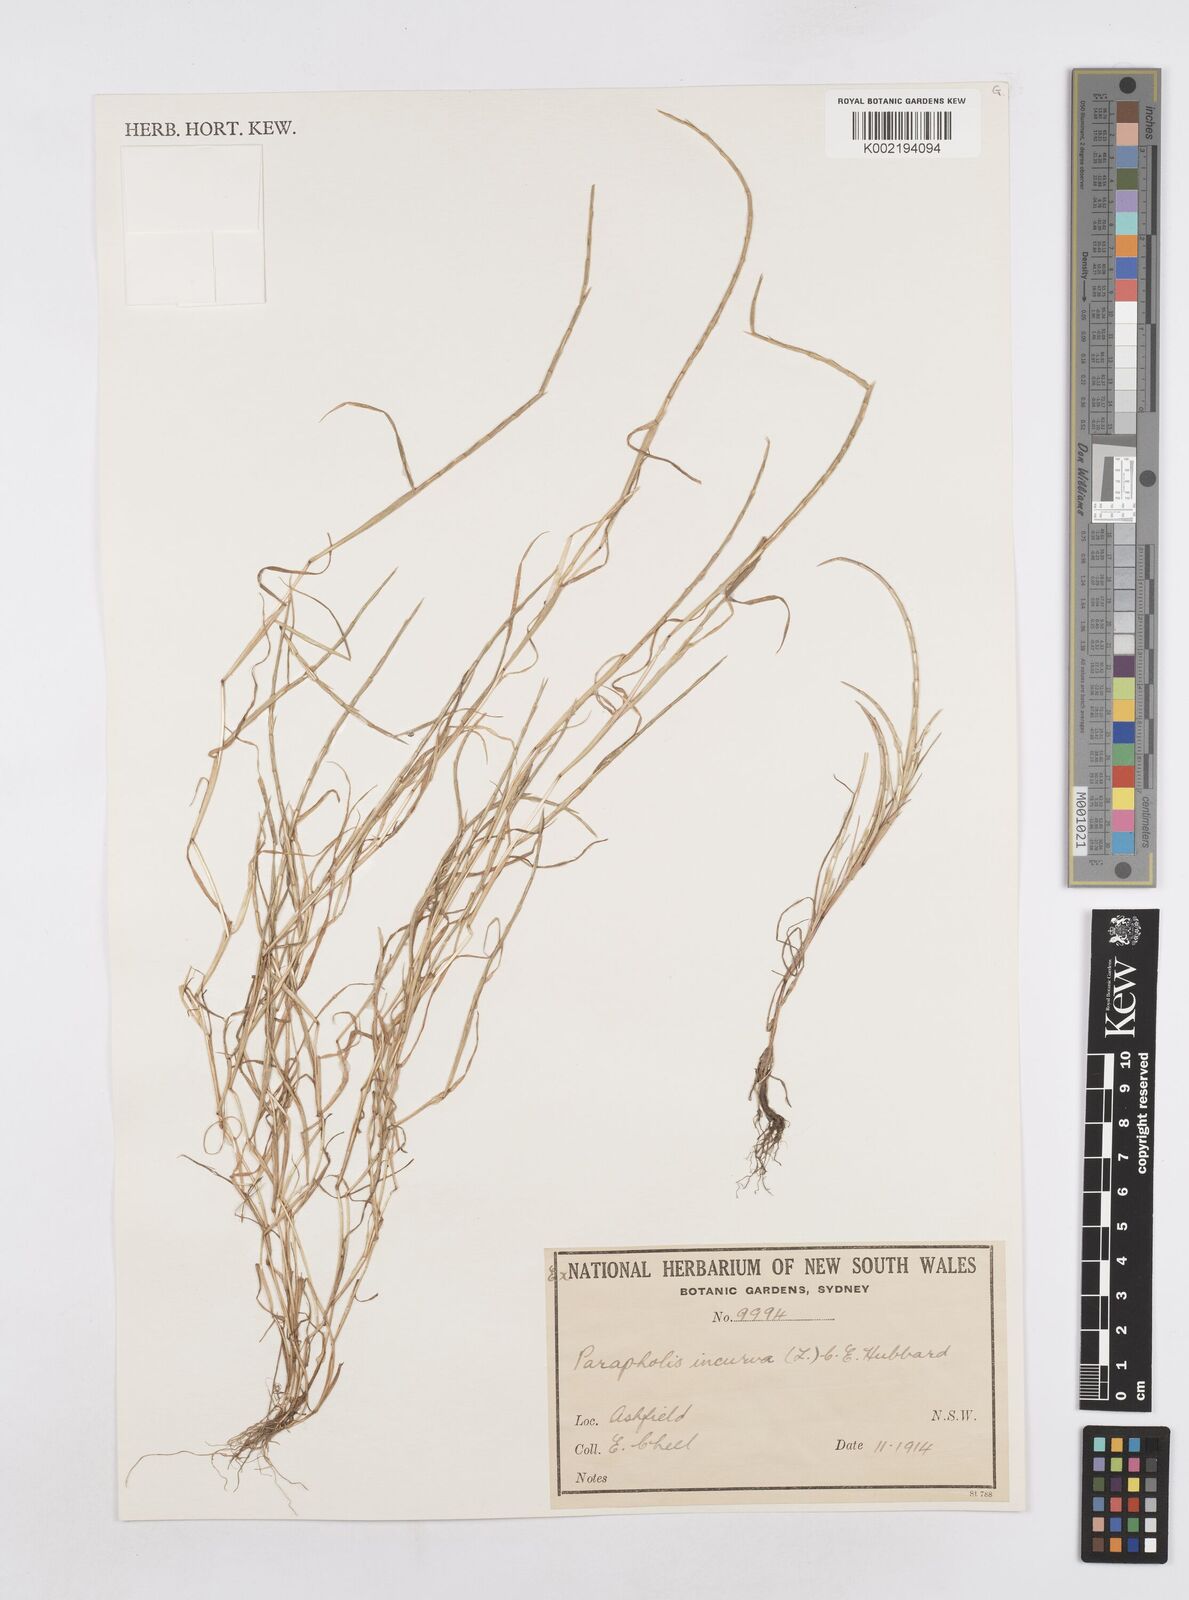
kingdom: Plantae
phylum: Tracheophyta
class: Liliopsida
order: Poales
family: Poaceae
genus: Parapholis
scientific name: Parapholis strigosa
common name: Hard-grass
